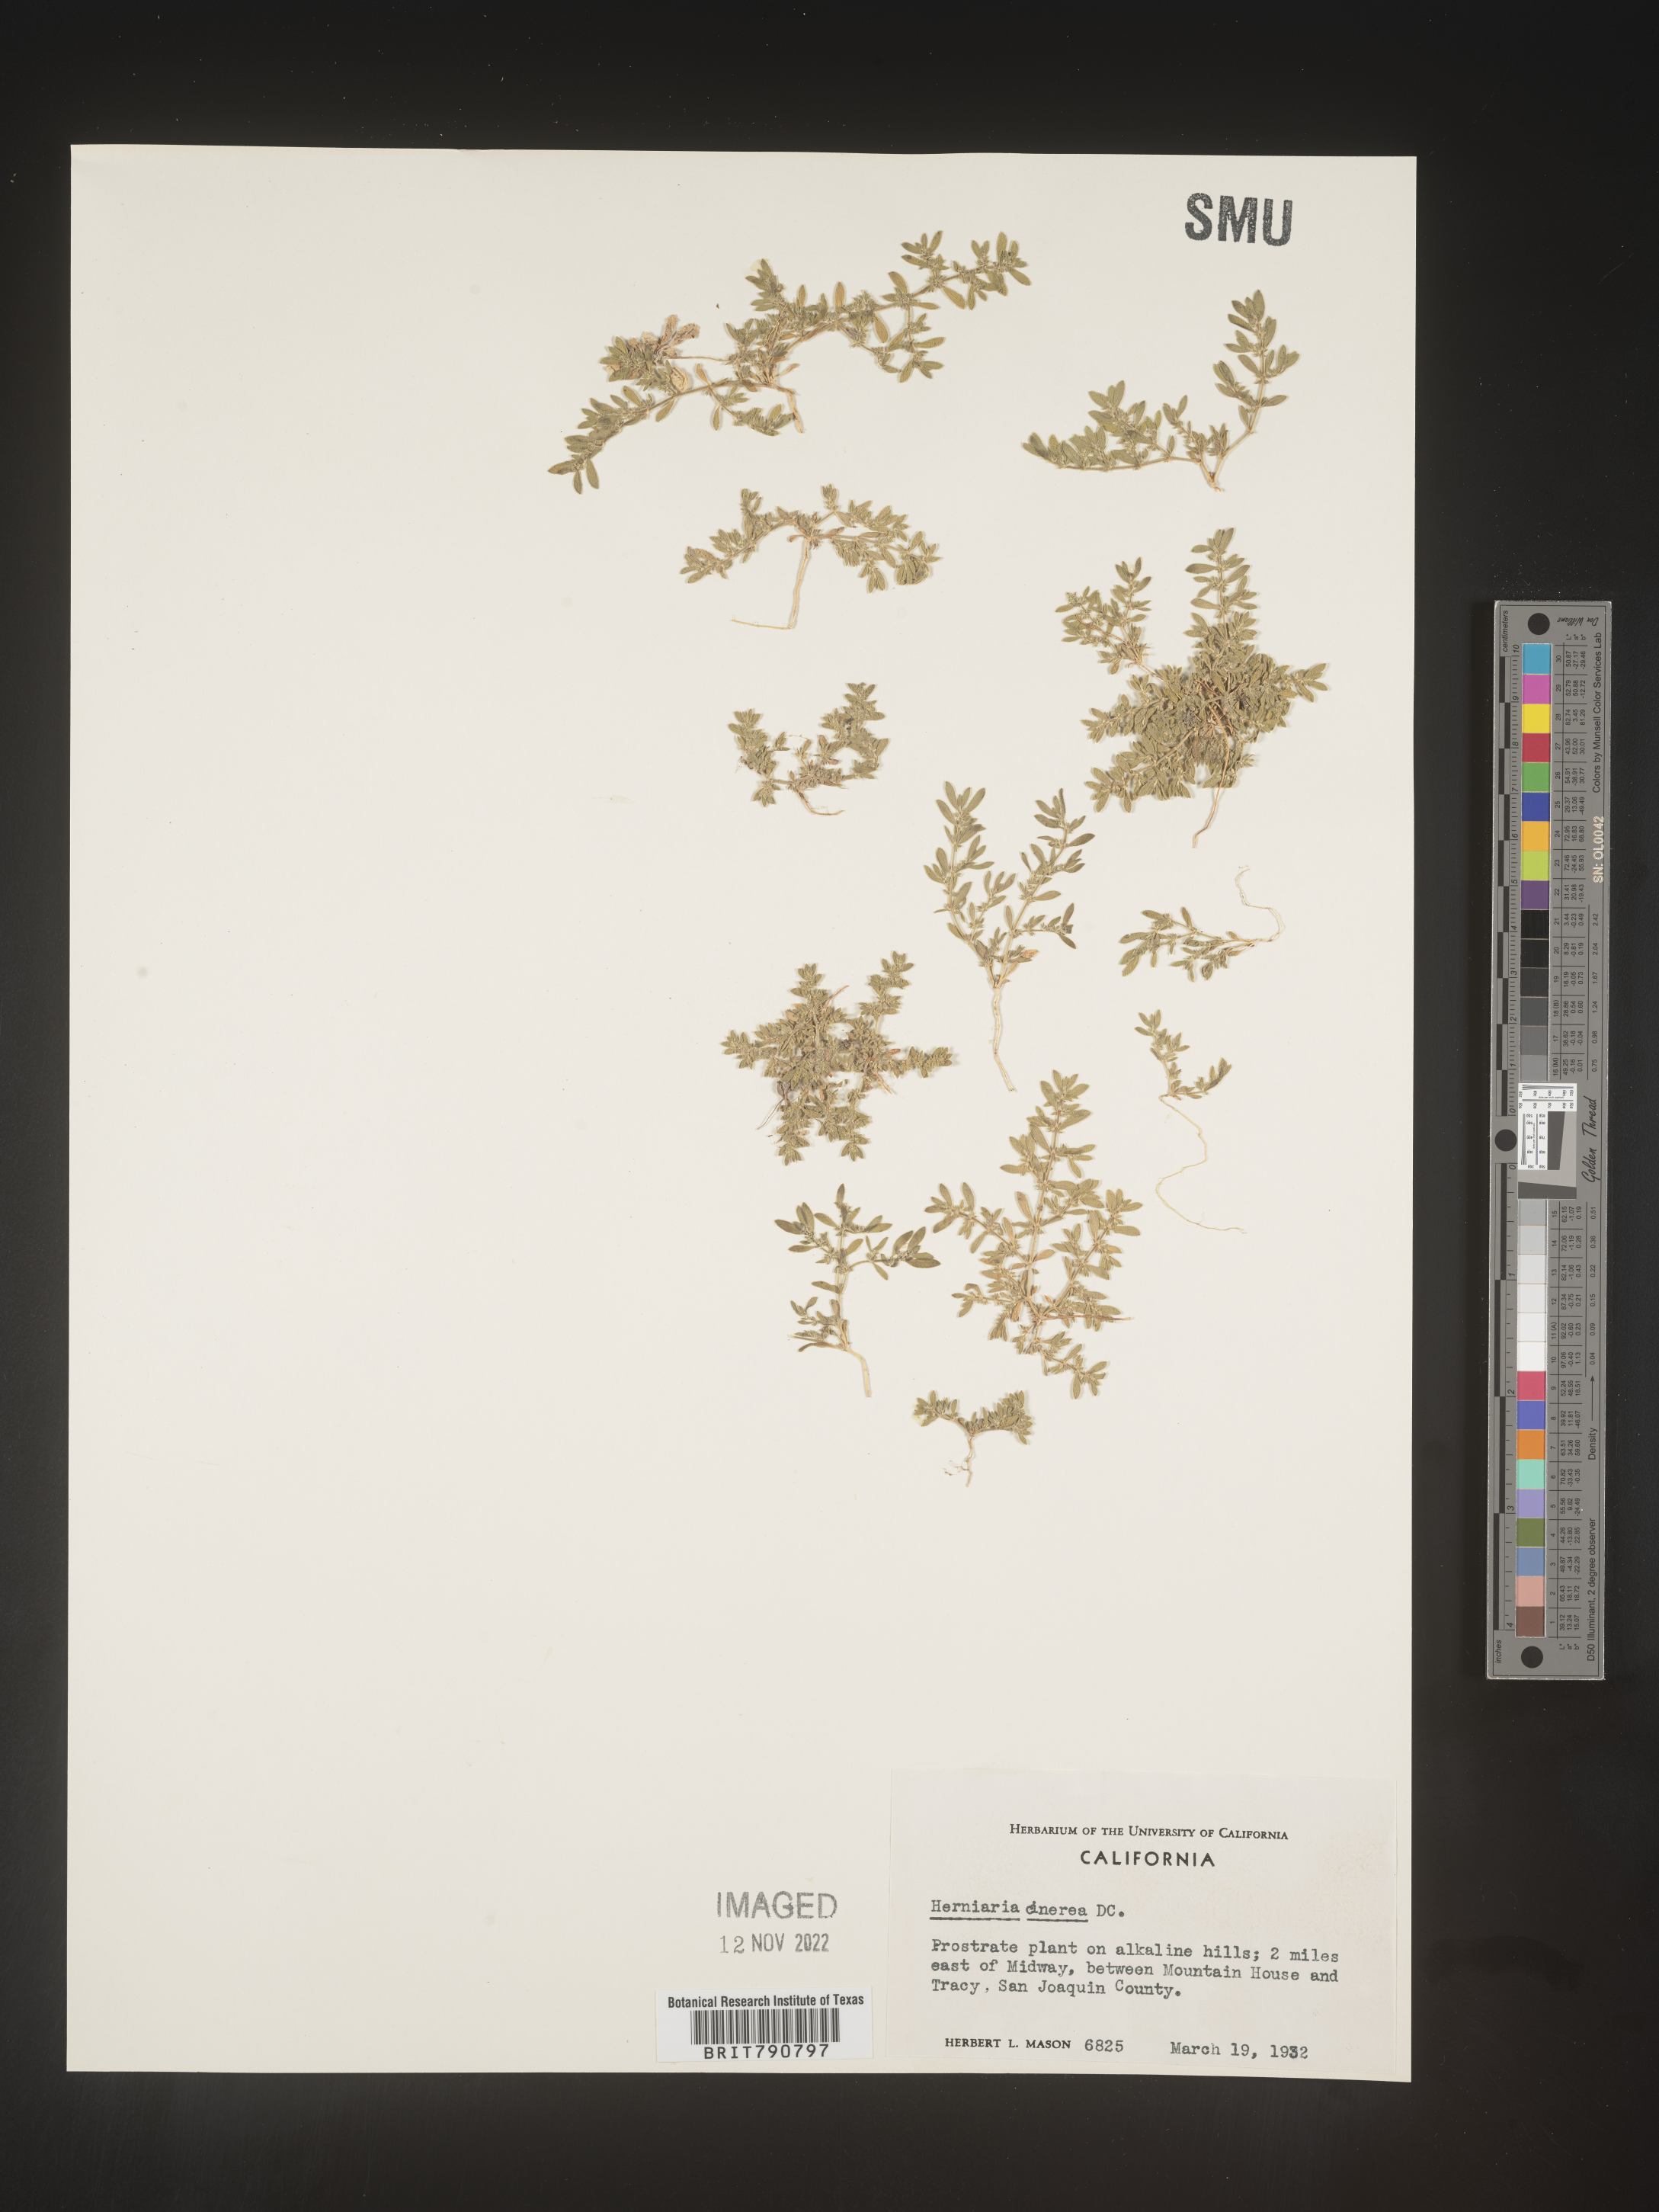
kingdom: Plantae
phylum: Tracheophyta
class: Magnoliopsida
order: Caryophyllales
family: Caryophyllaceae
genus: Herniaria
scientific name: Herniaria
